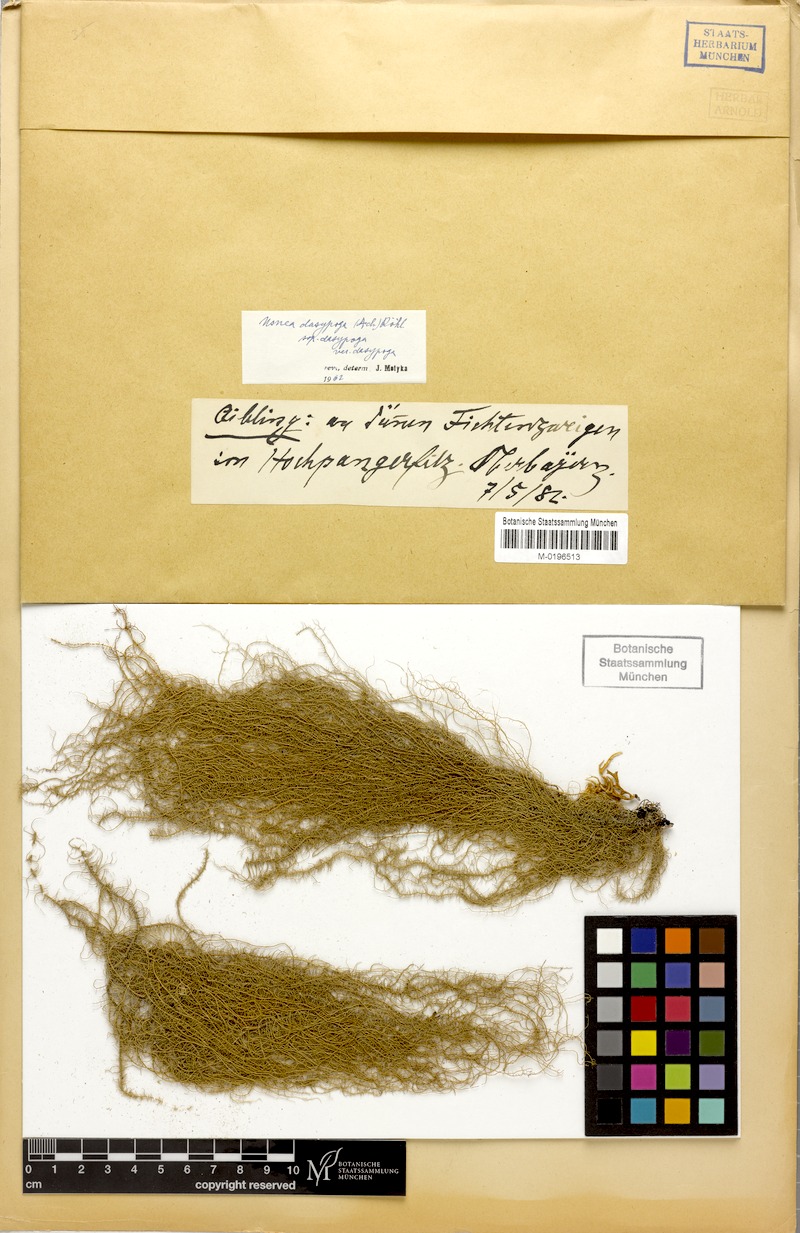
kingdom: Fungi
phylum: Ascomycota
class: Lecanoromycetes
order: Lecanorales
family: Parmeliaceae
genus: Usnea
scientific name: Usnea dasopoga
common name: Fishbone beard lichen
